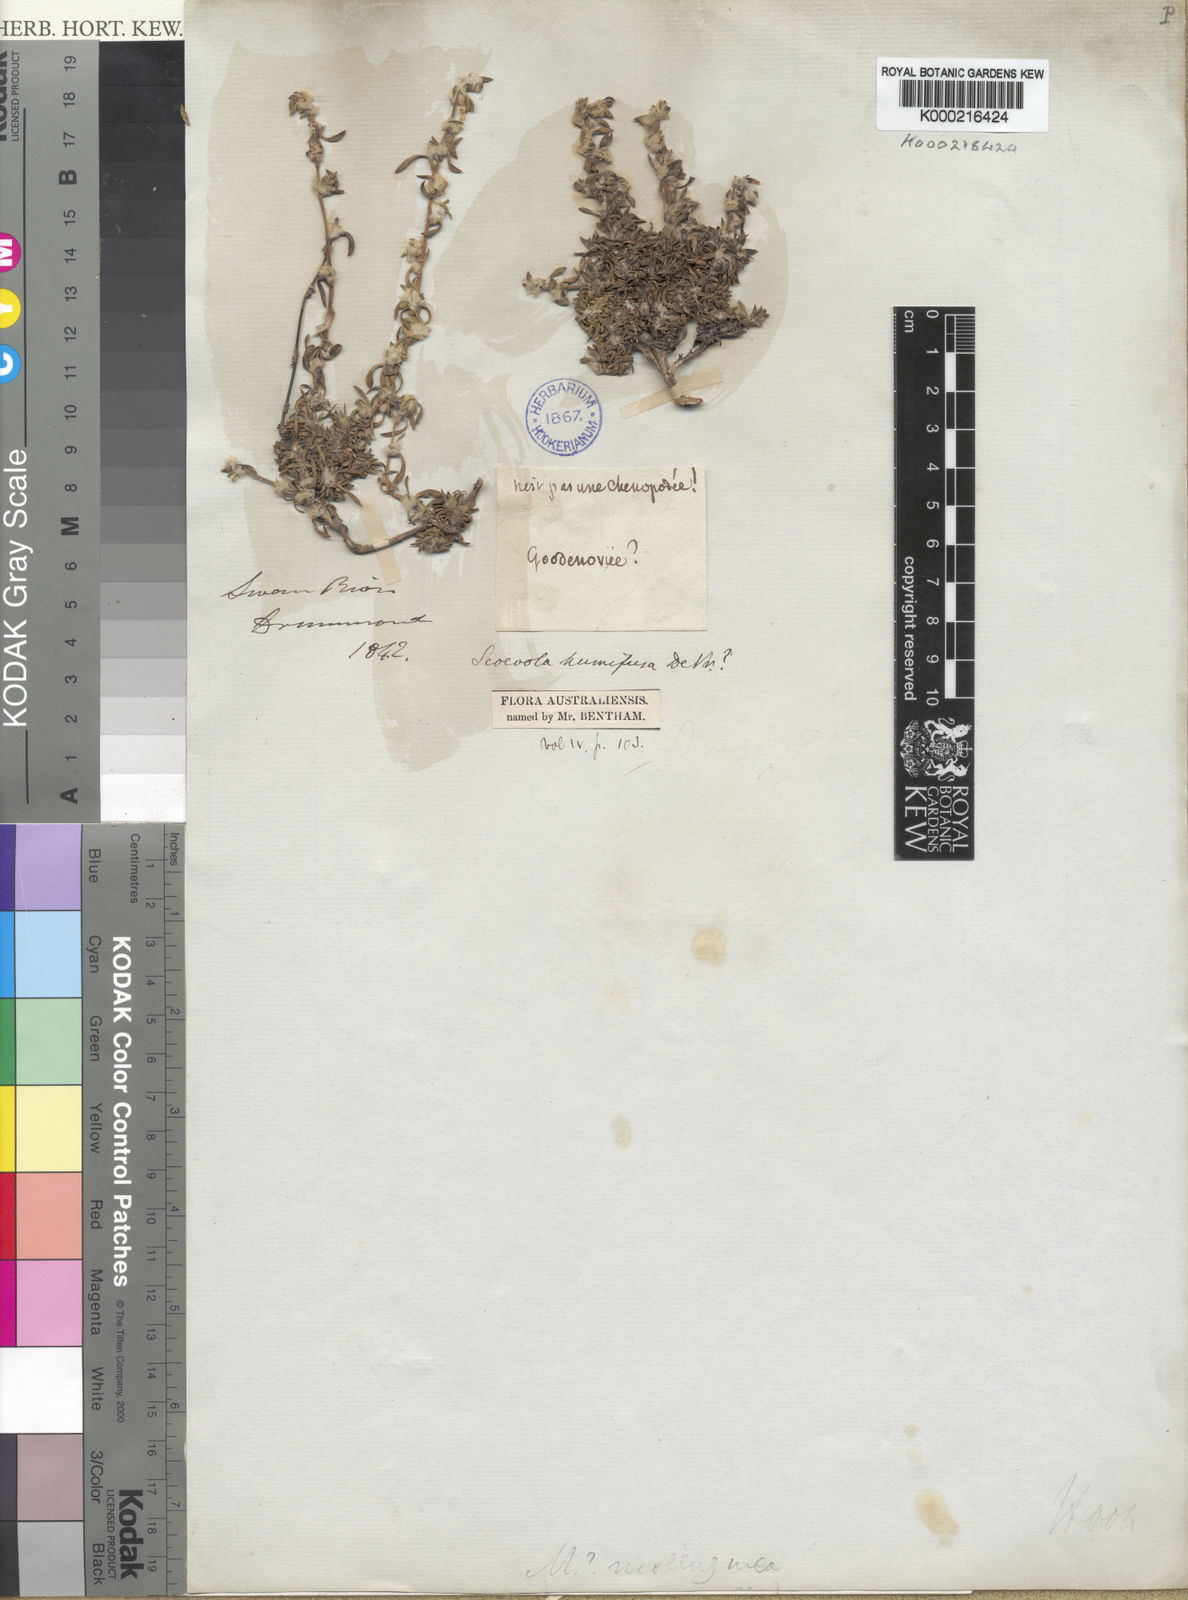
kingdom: Plantae
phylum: Tracheophyta
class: Magnoliopsida
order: Asterales
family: Goodeniaceae
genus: Scaevola
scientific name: Scaevola humifusa
